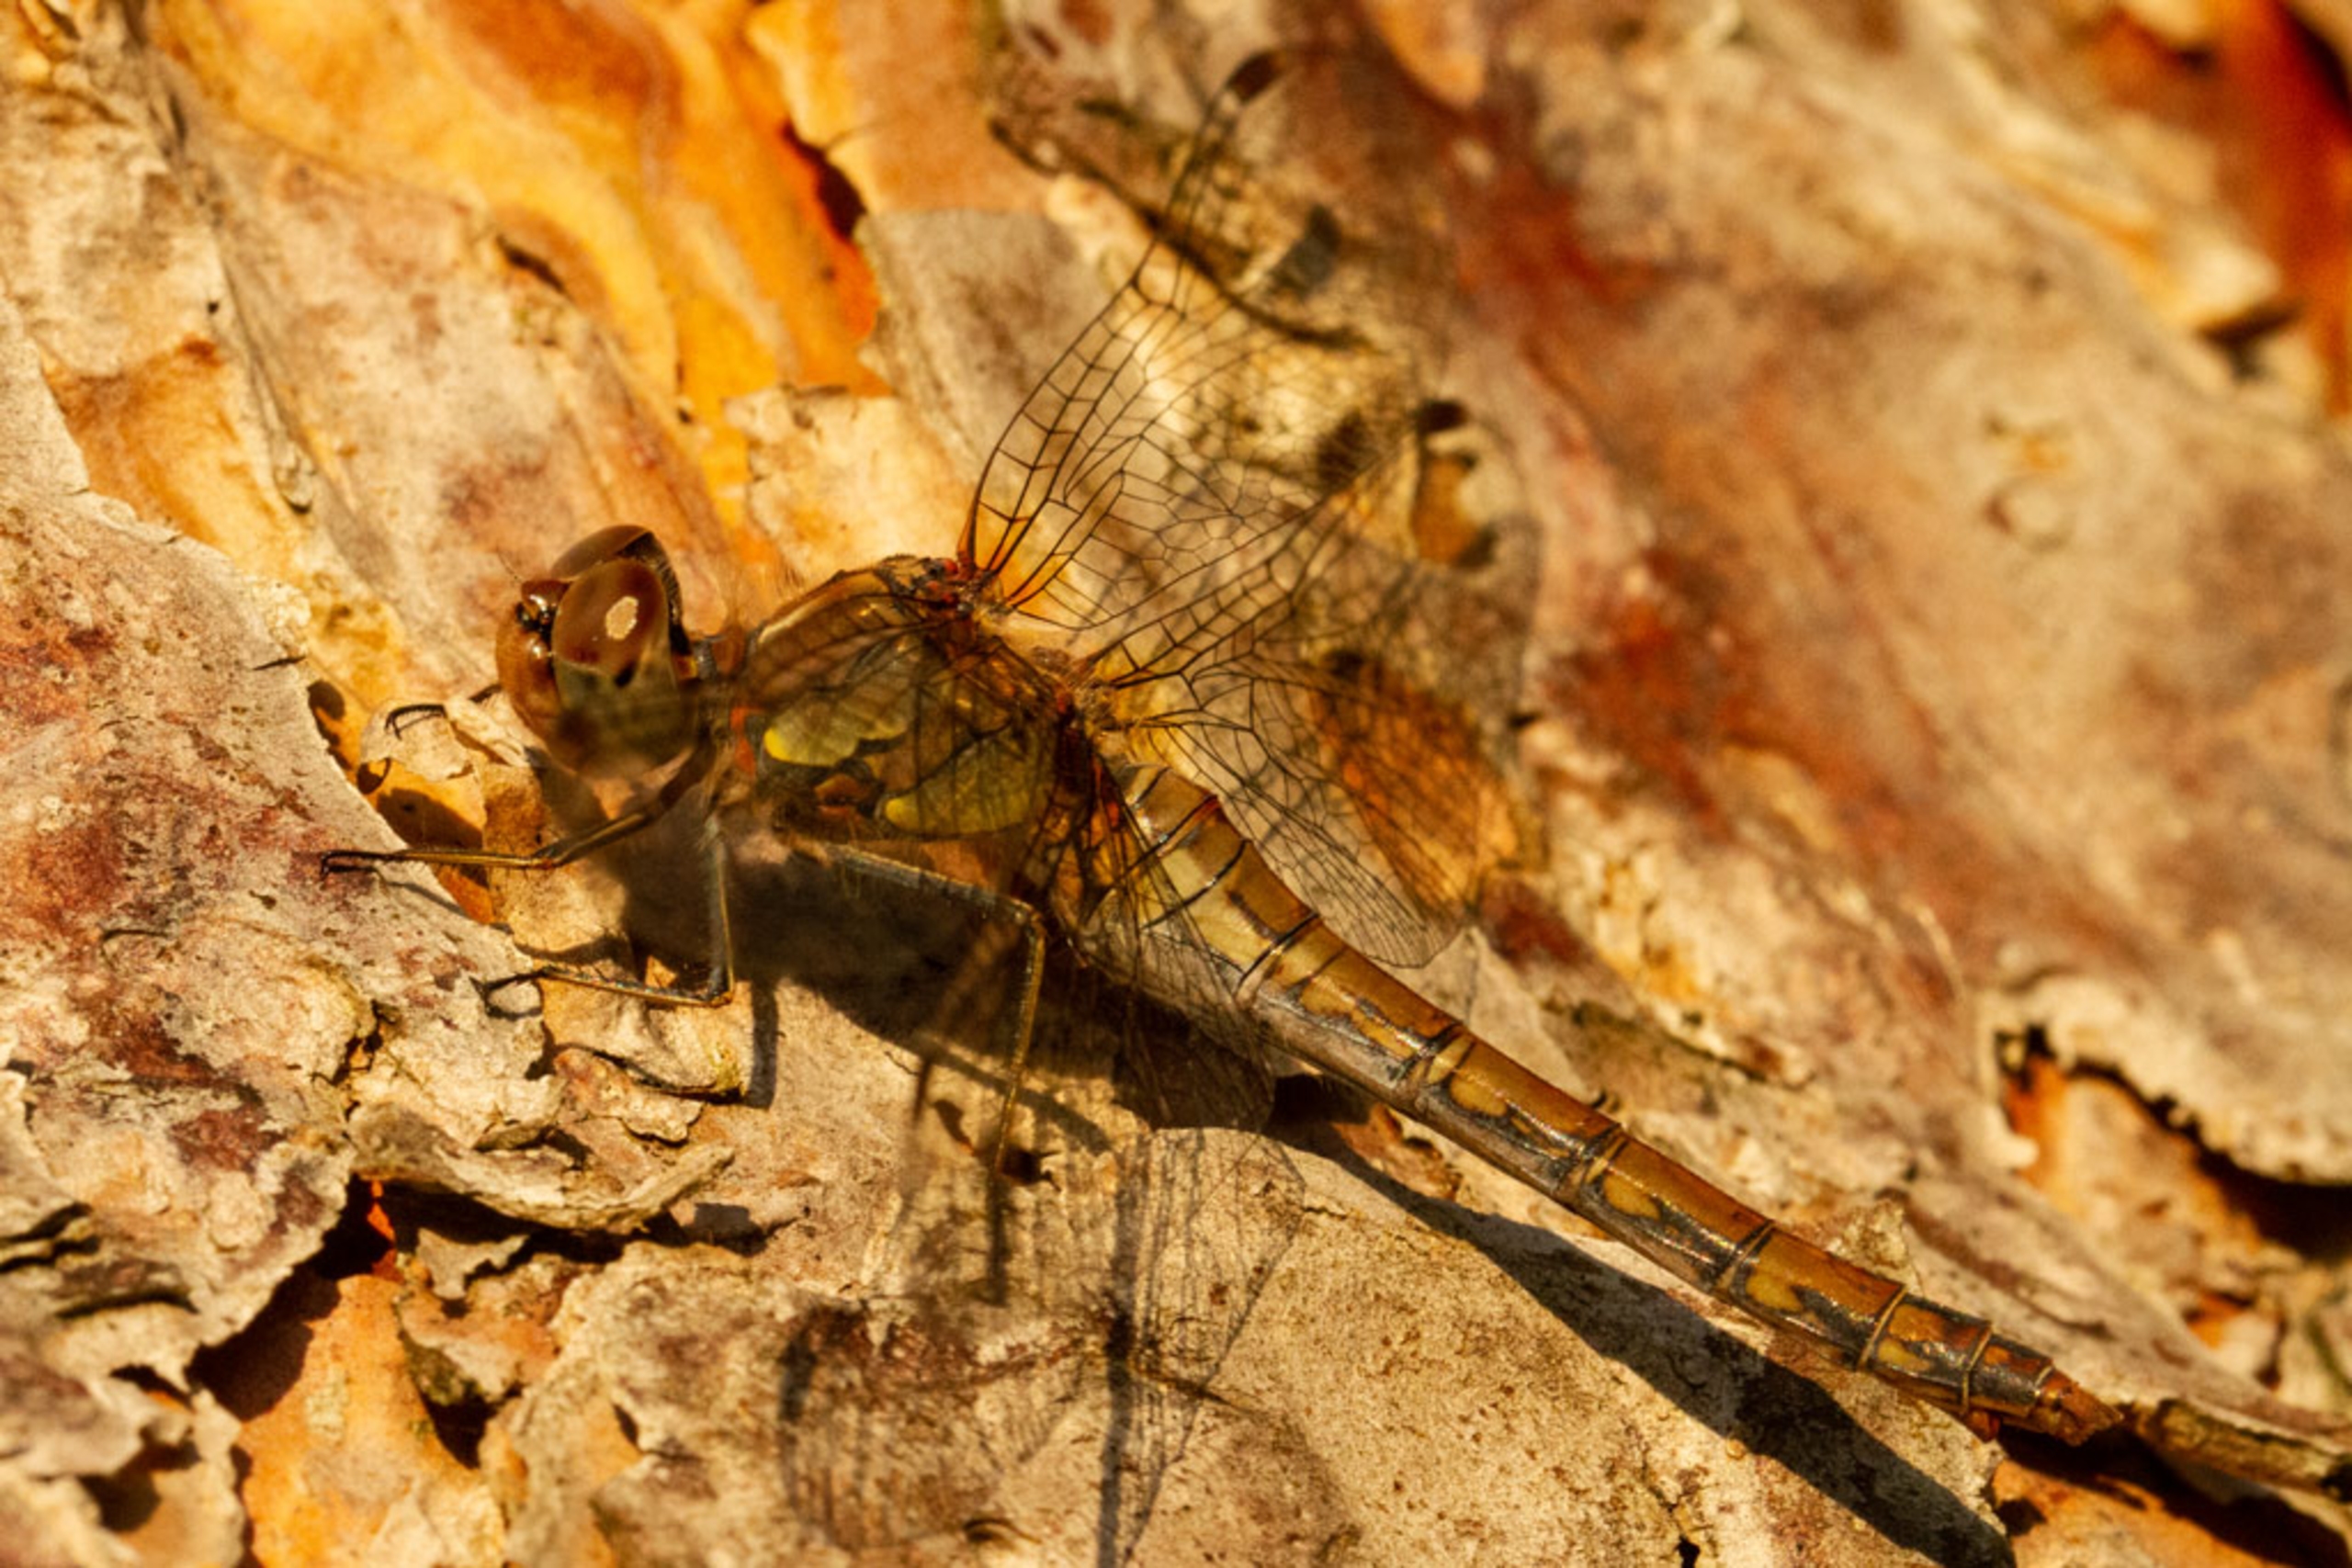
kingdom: Animalia
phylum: Arthropoda
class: Insecta
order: Odonata
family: Libellulidae
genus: Sympetrum
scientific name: Sympetrum striolatum
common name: Stor hedelibel
